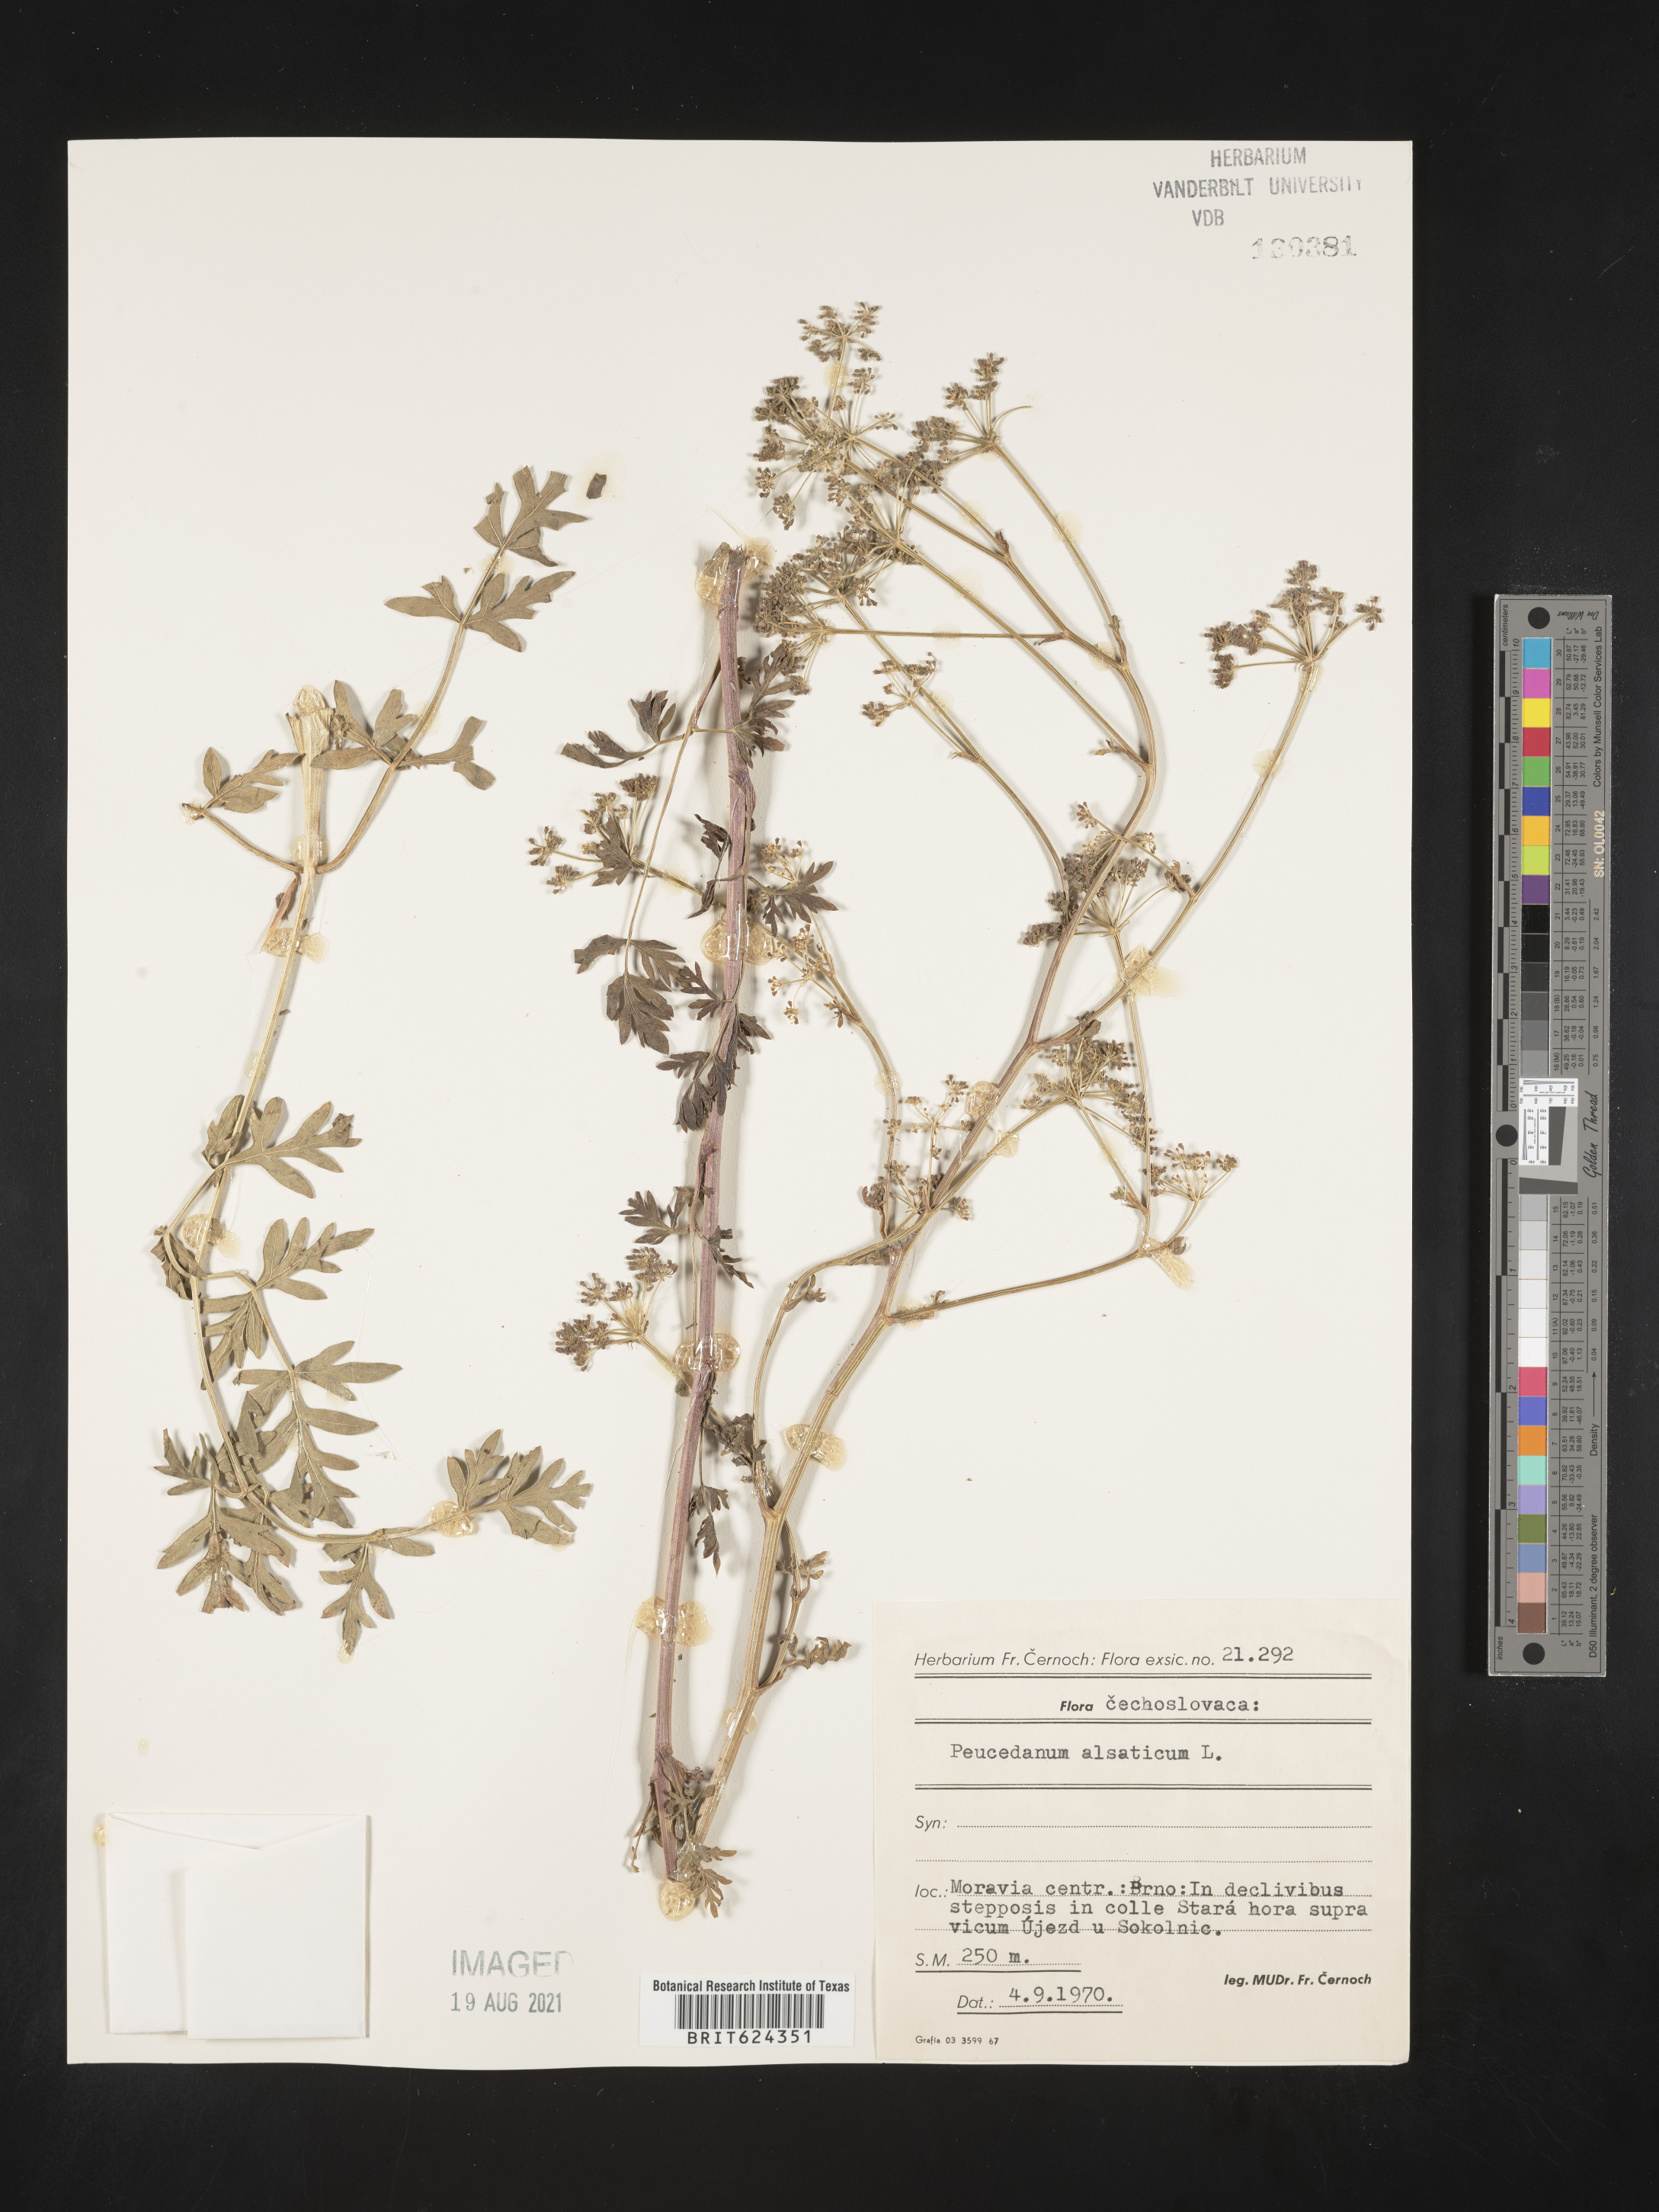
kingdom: Plantae
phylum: Tracheophyta
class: Magnoliopsida
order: Apiales
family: Apiaceae
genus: Xanthoselinum
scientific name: Xanthoselinum alsaticum
